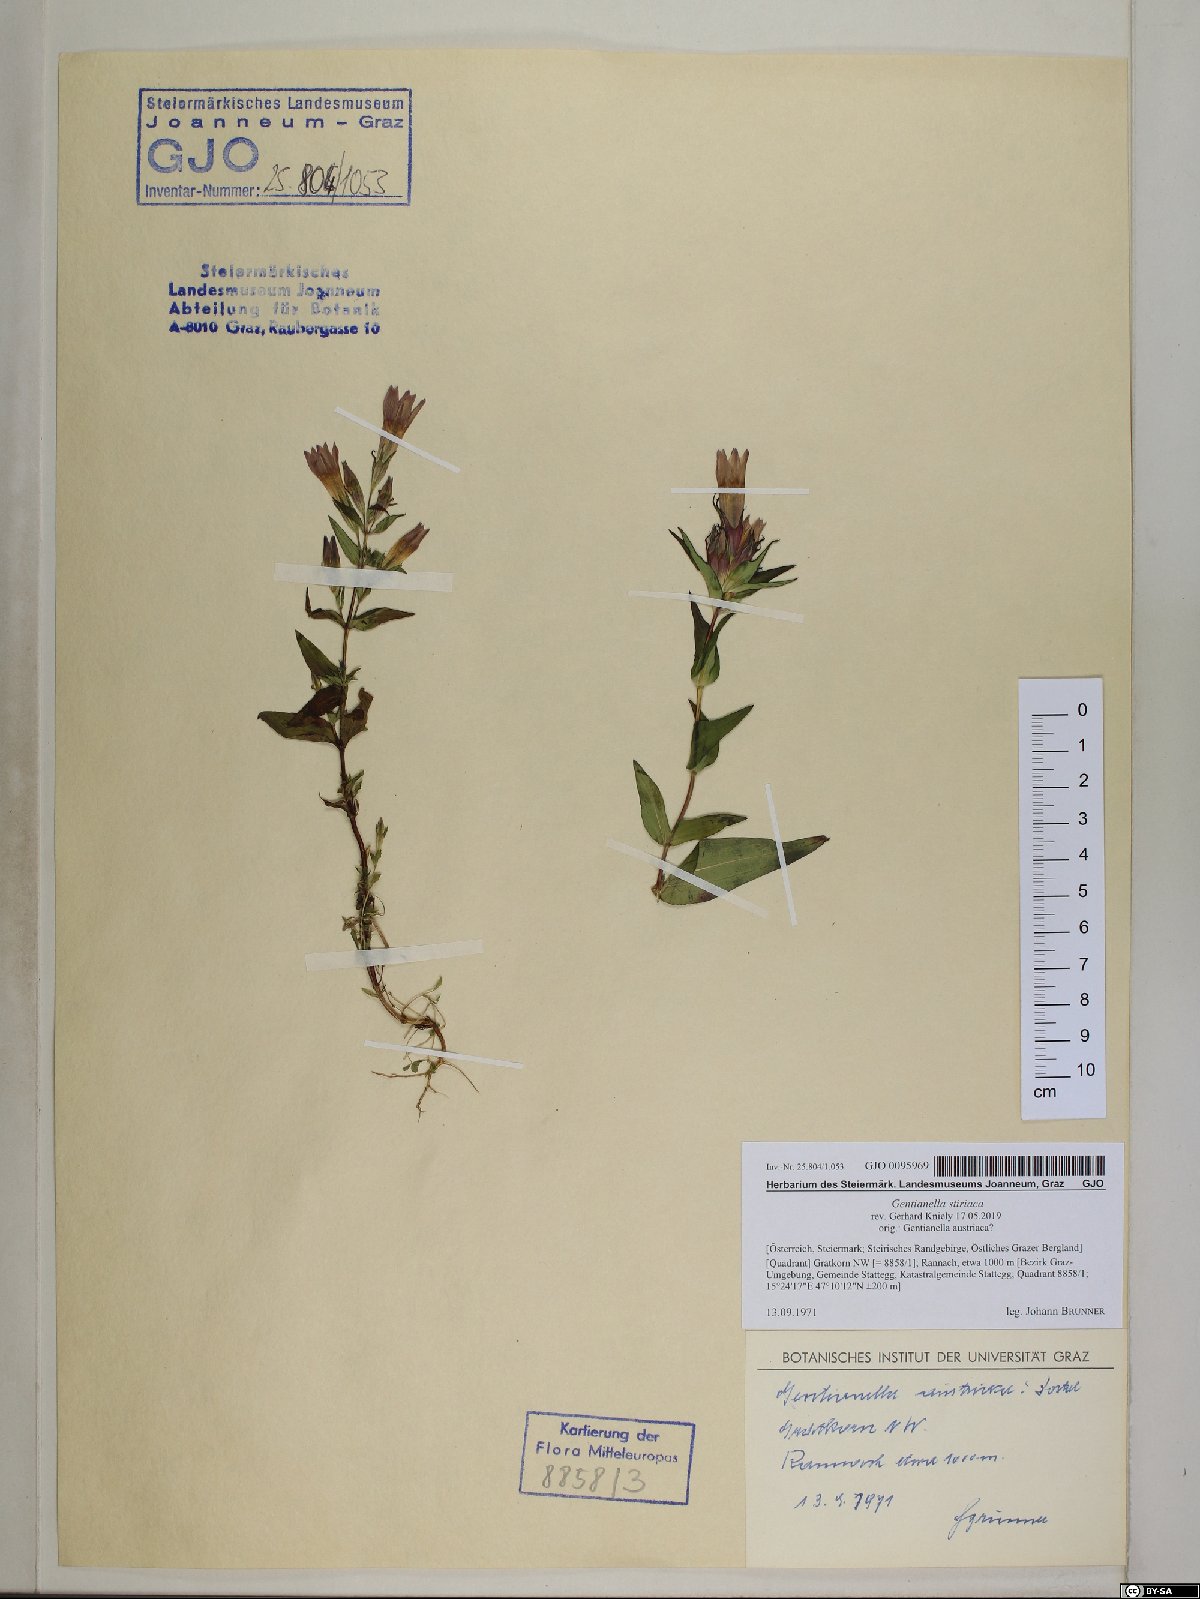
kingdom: Plantae
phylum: Tracheophyta
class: Magnoliopsida
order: Gentianales
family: Gentianaceae
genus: Gentianella
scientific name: Gentianella styriaca
